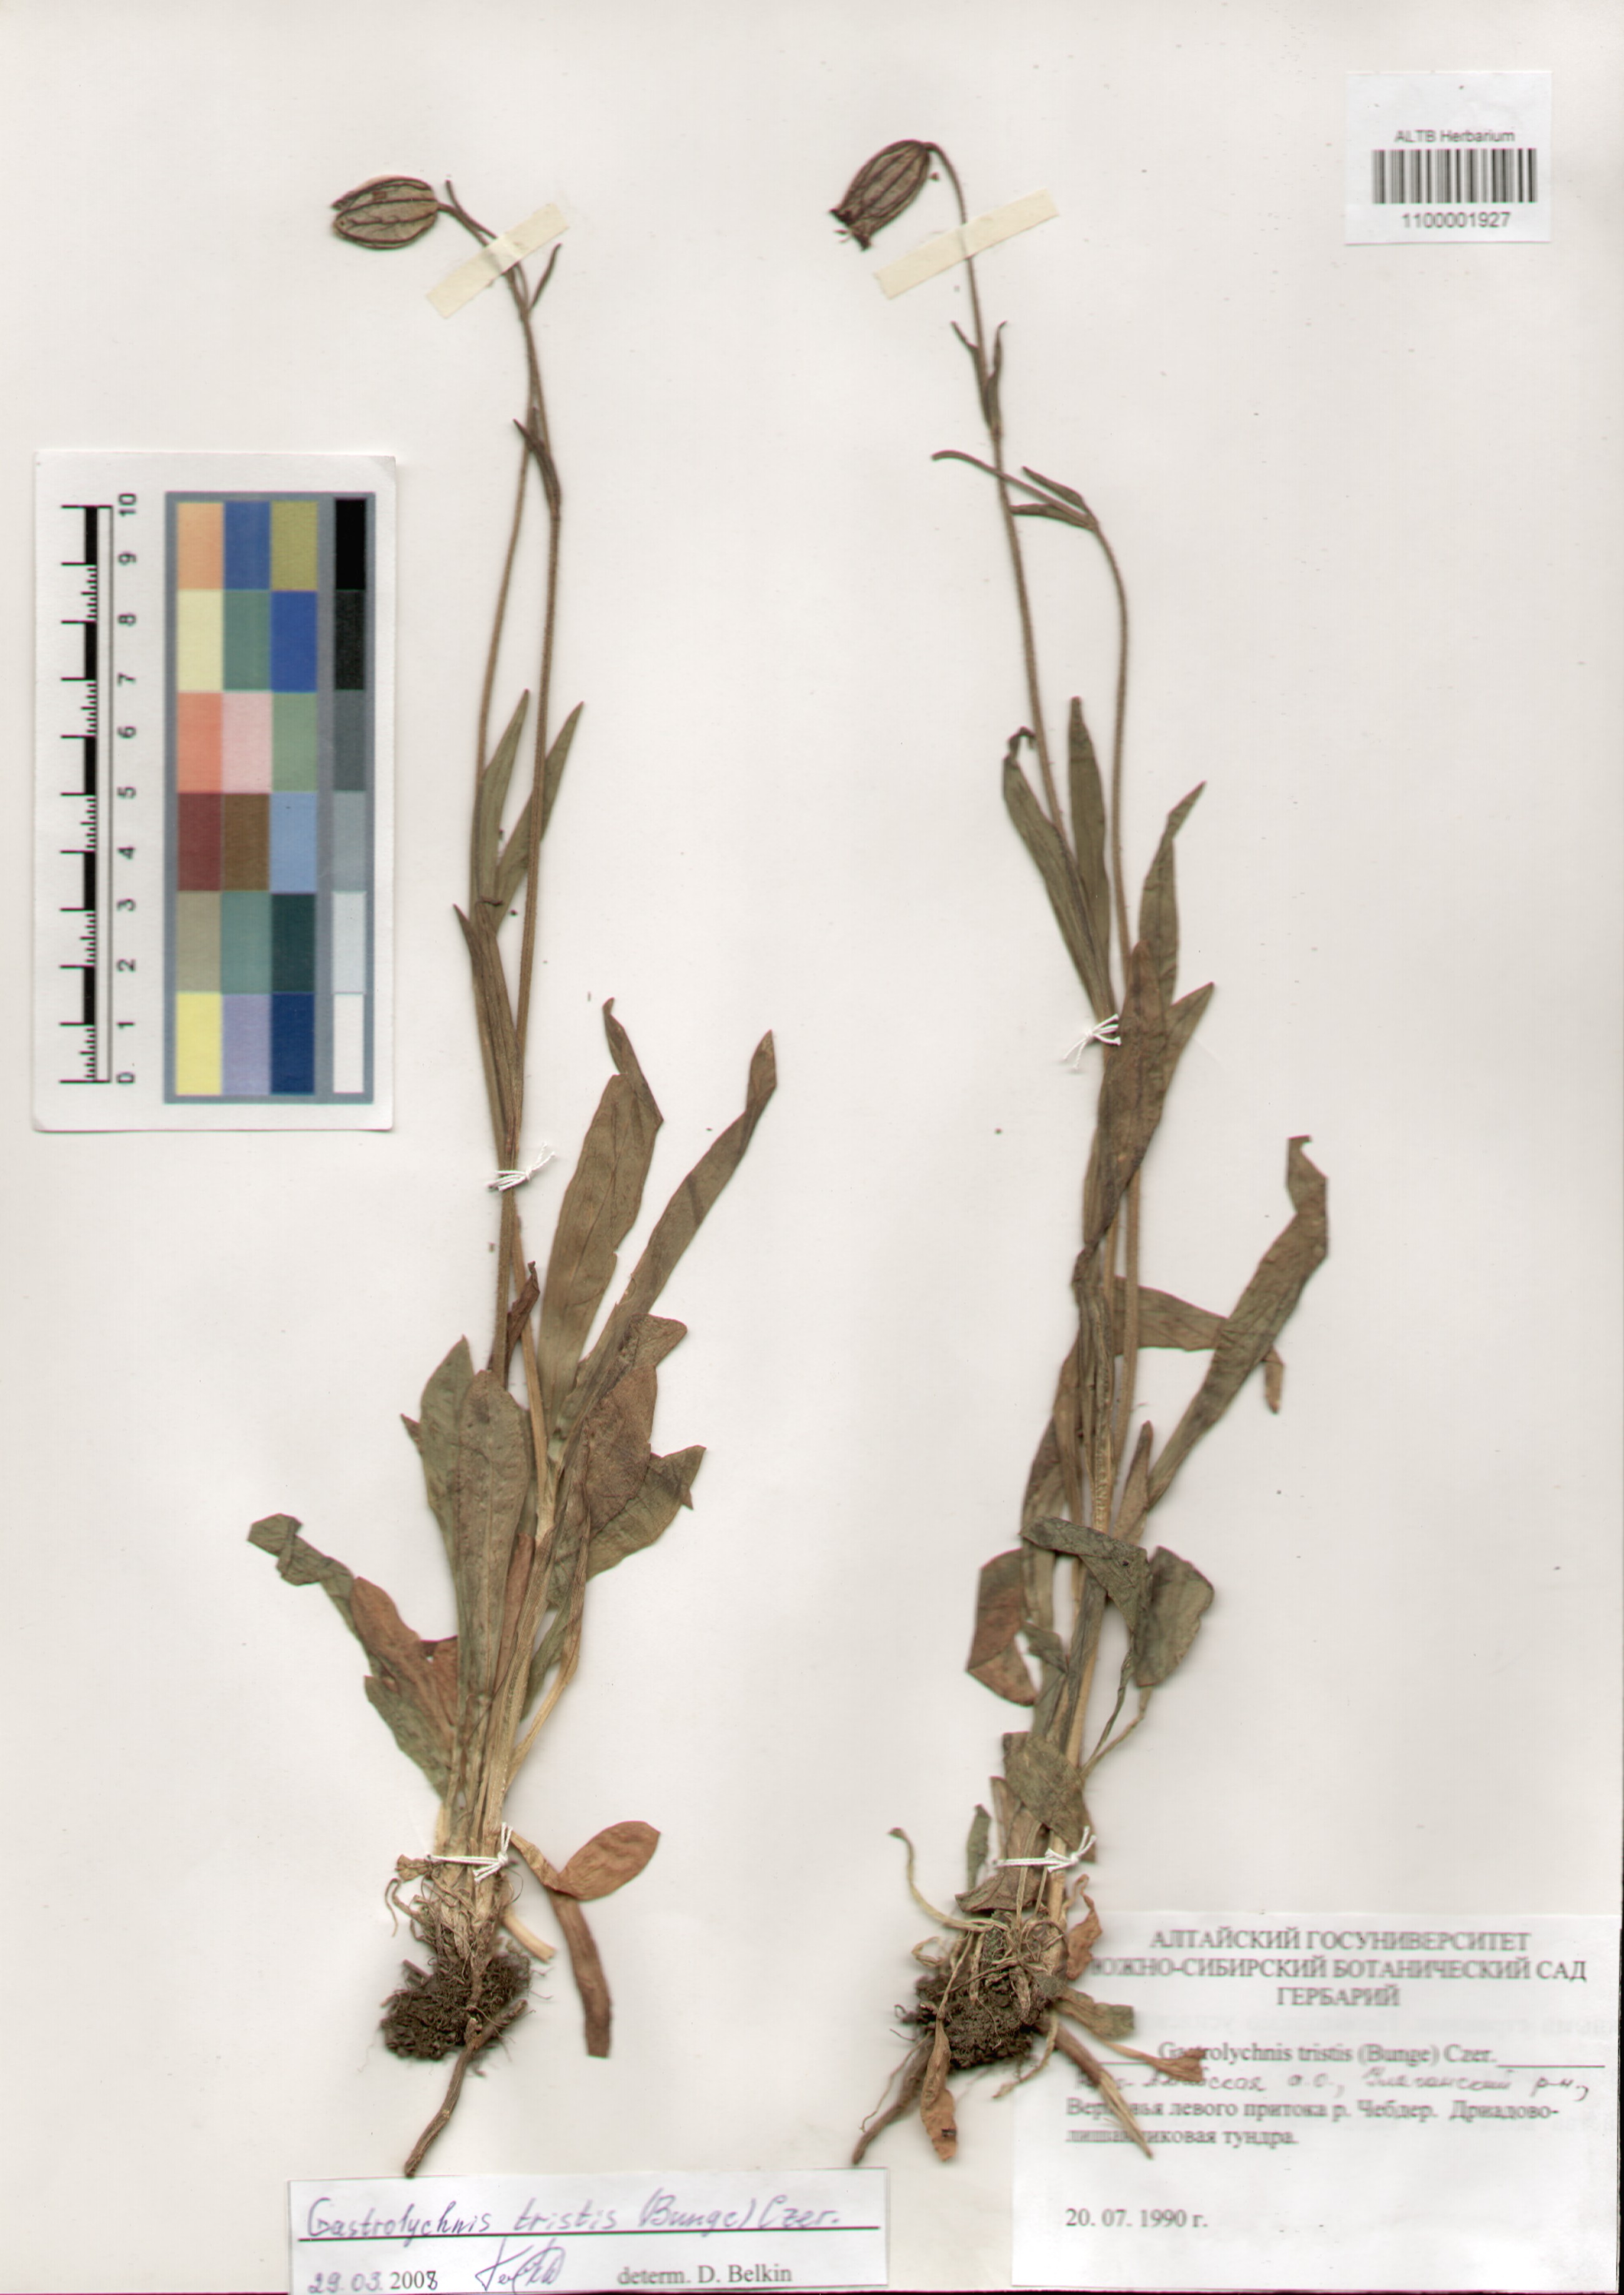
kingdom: Plantae
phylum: Tracheophyta
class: Magnoliopsida
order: Caryophyllales
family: Caryophyllaceae
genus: Silene
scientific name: Silene bungei
